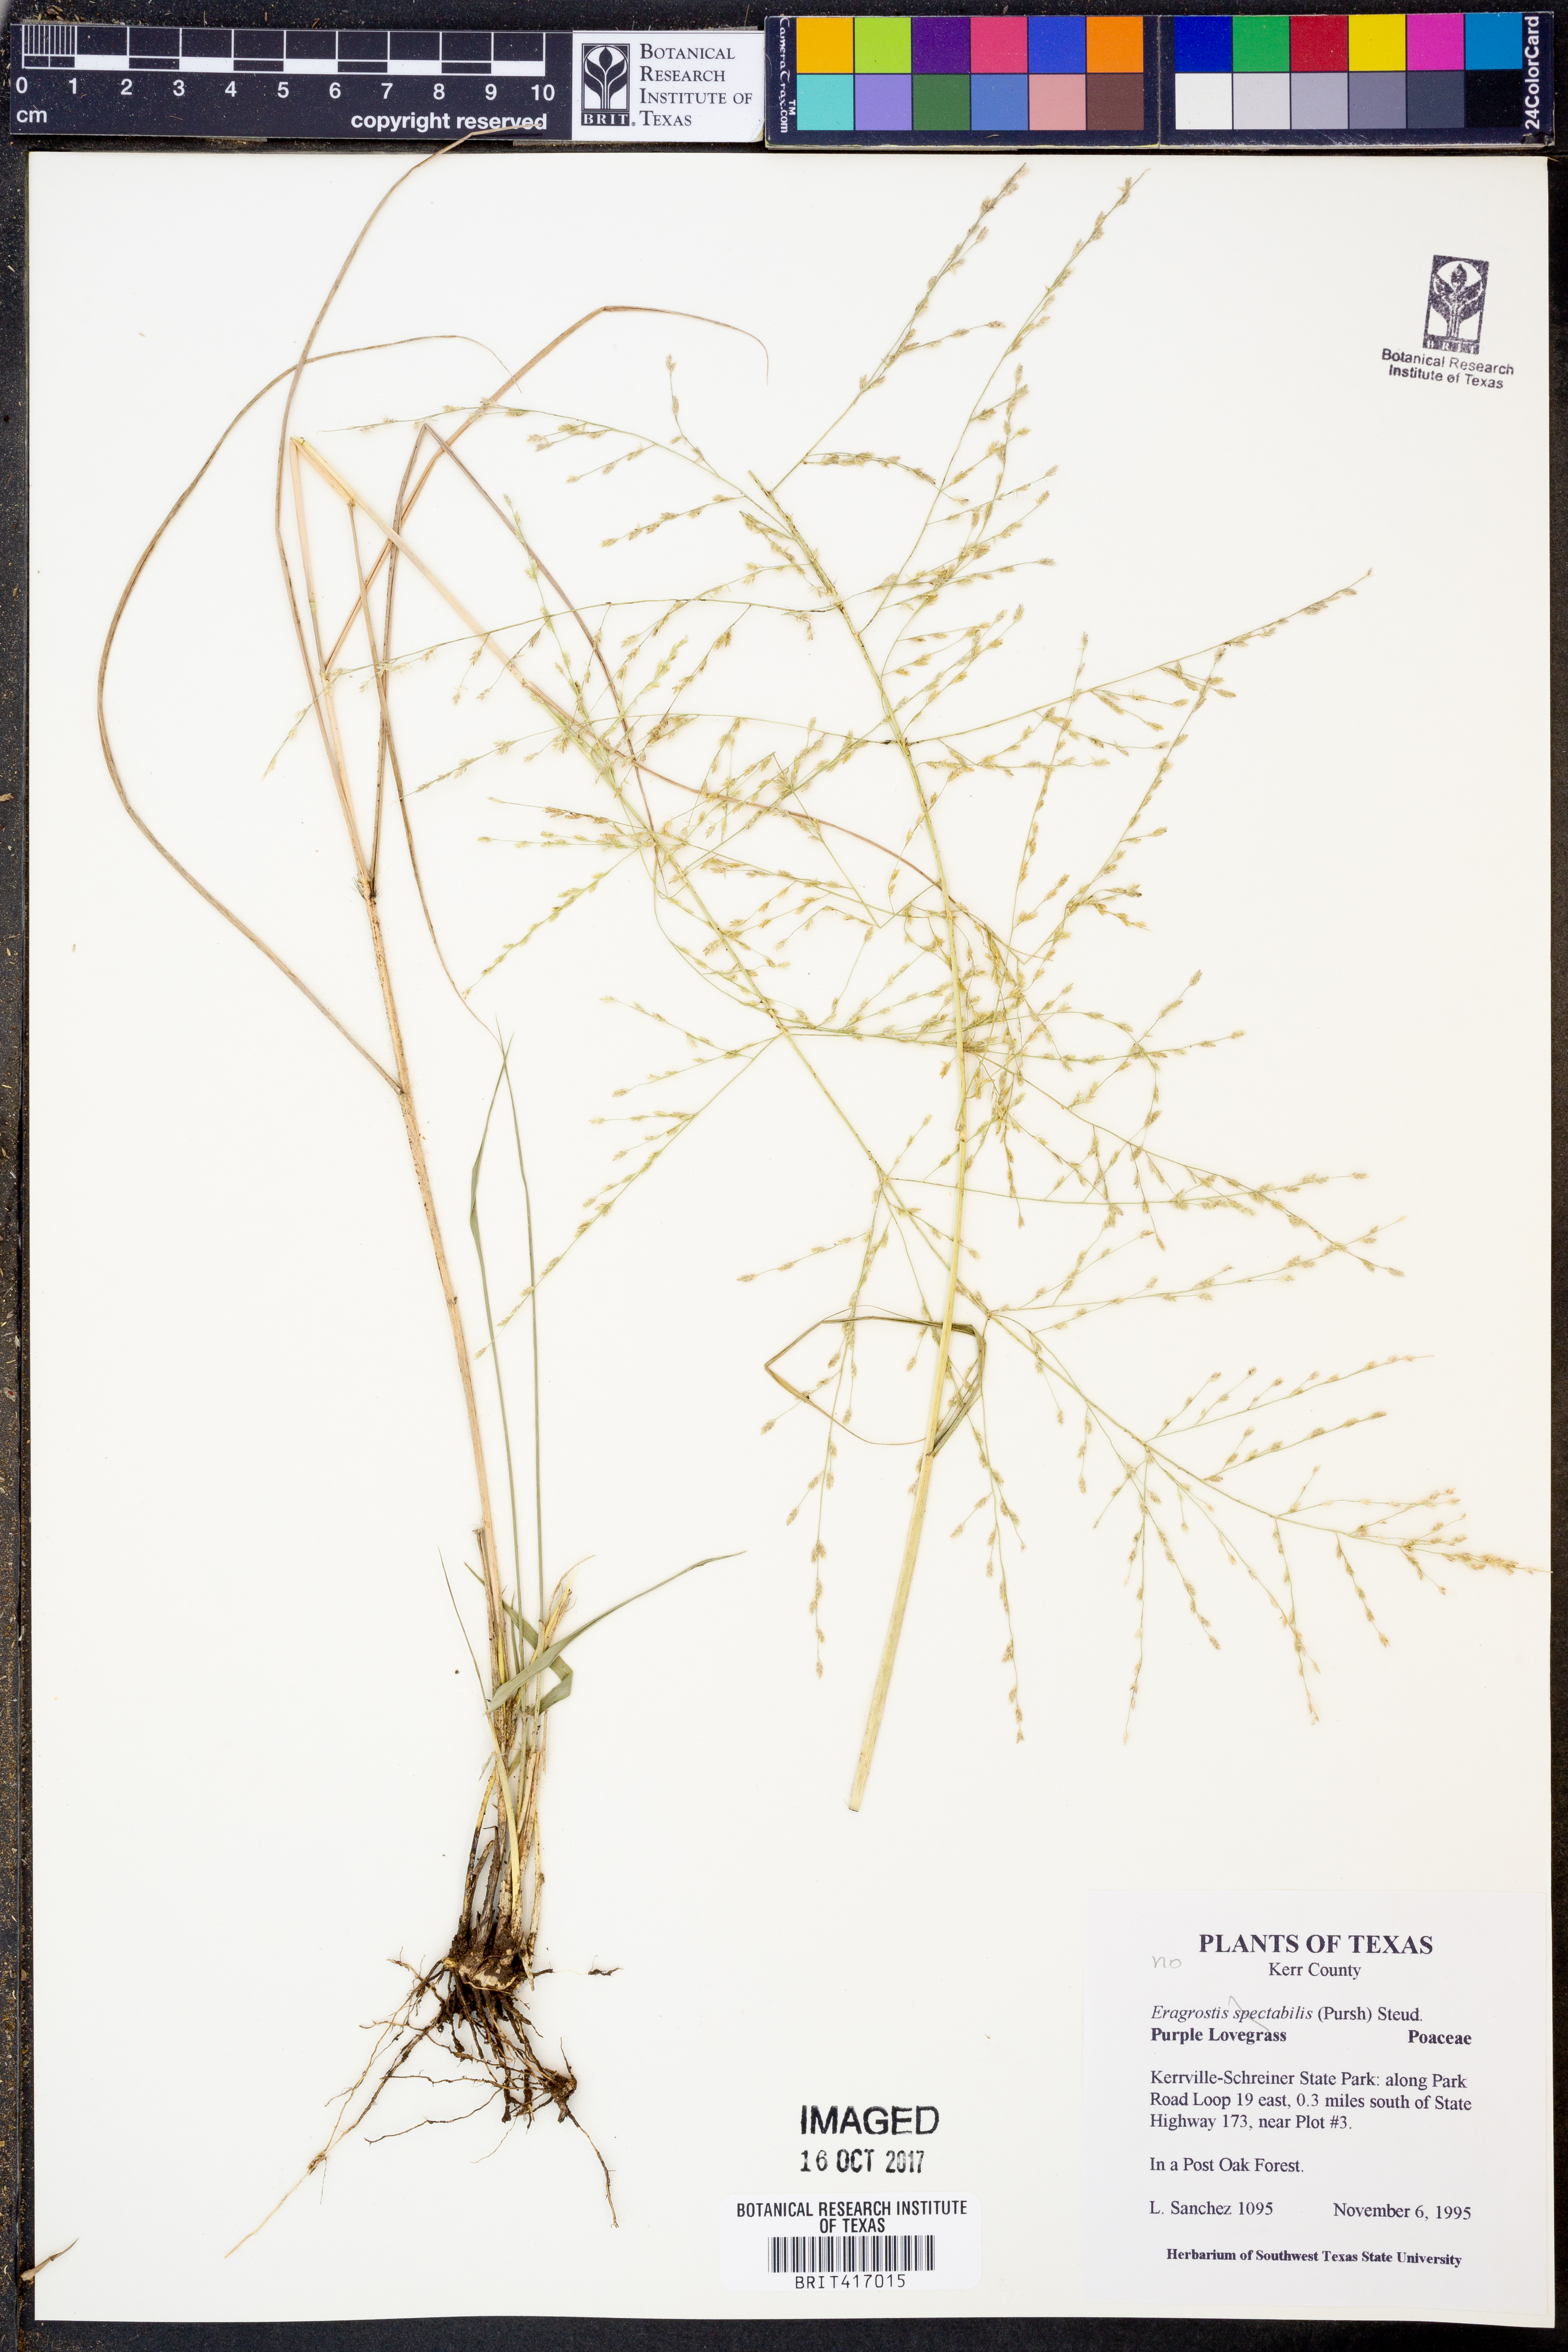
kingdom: Plantae
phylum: Tracheophyta
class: Liliopsida
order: Poales
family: Poaceae
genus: Eragrostis
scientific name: Eragrostis spectabilis
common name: Petticoat-climber
